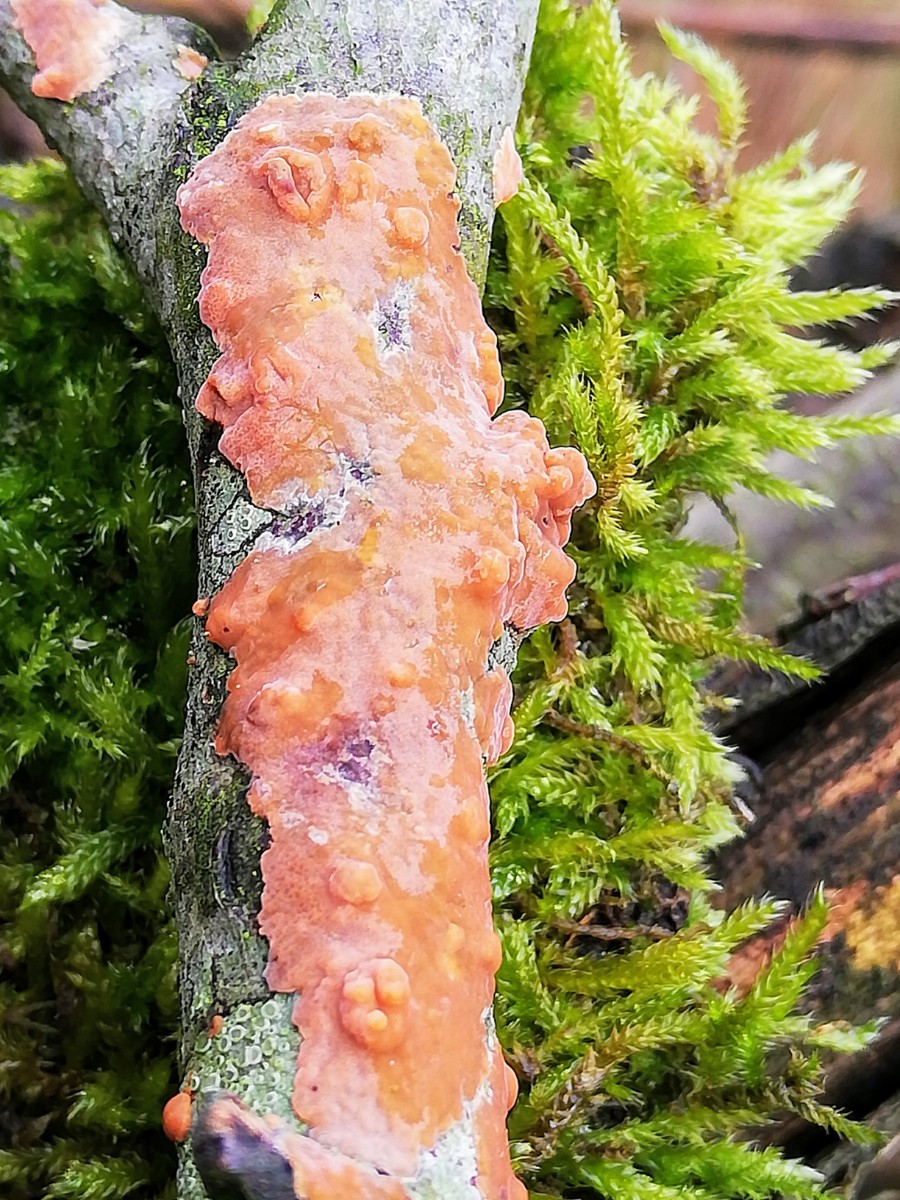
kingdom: Fungi
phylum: Basidiomycota
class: Agaricomycetes
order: Russulales
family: Peniophoraceae
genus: Peniophora
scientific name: Peniophora incarnata
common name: laksefarvet voksskind
